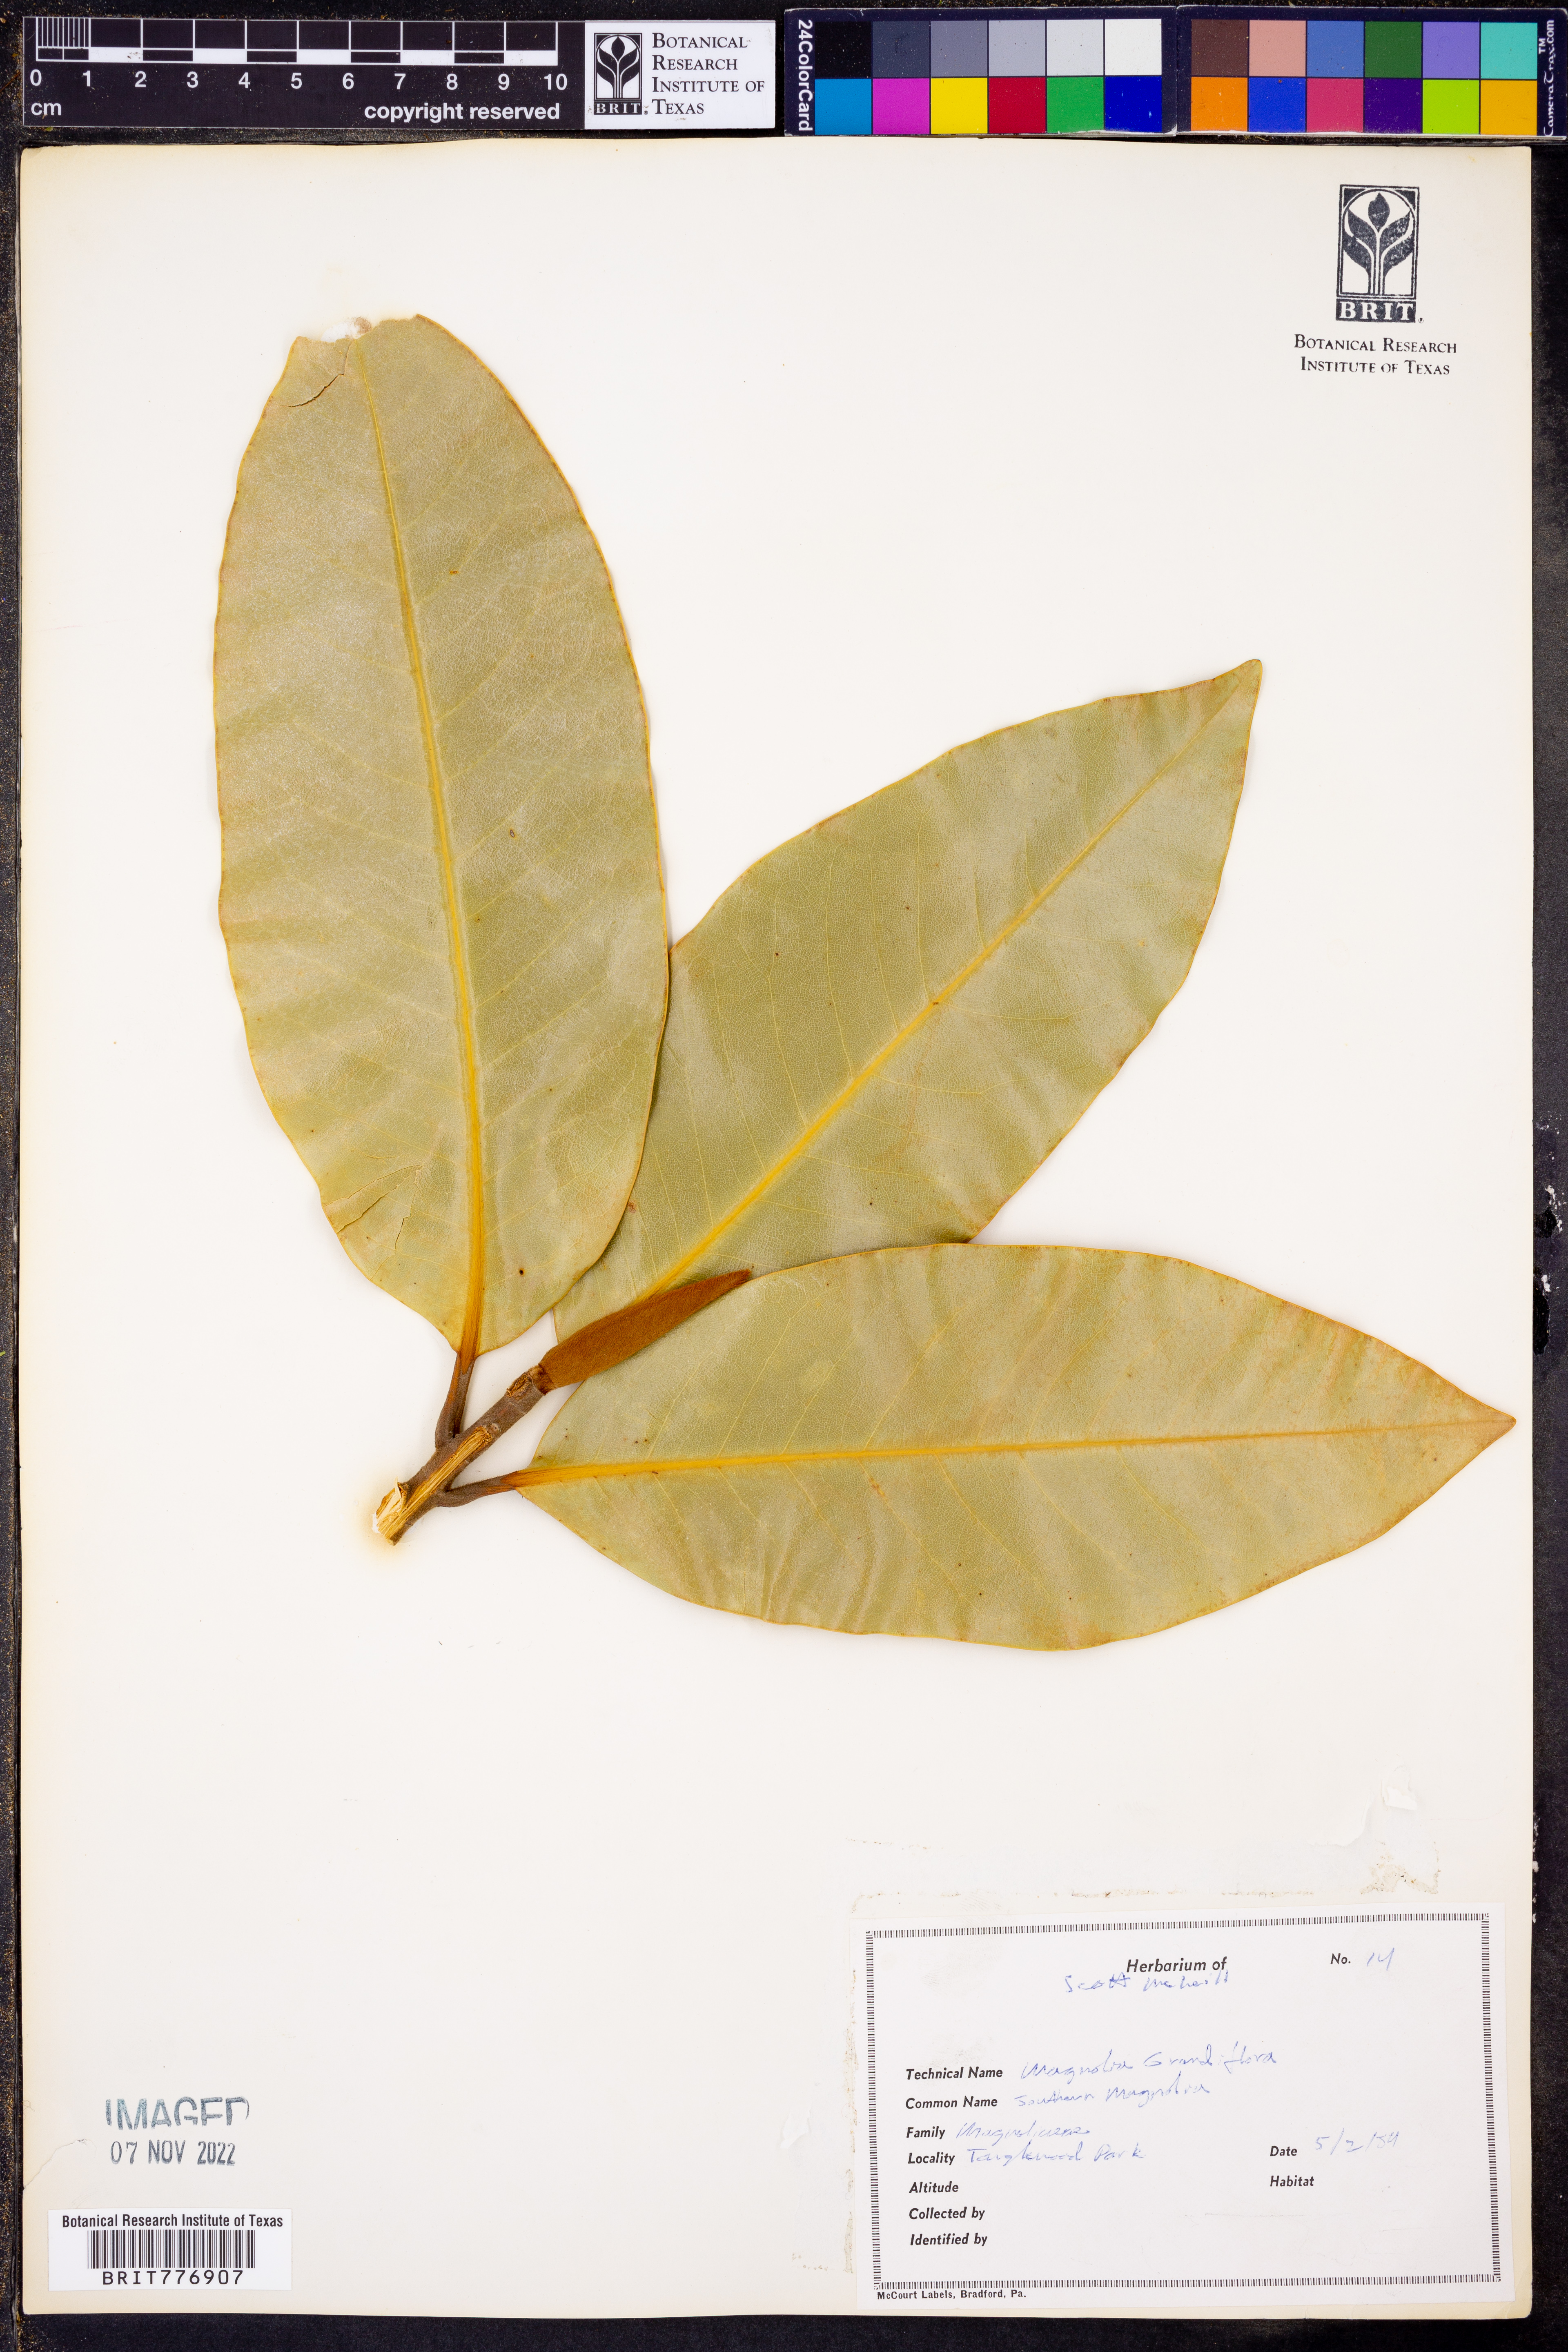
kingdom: Plantae
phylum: Tracheophyta
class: Magnoliopsida
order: Magnoliales
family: Magnoliaceae
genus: Magnolia
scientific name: Magnolia grandiflora
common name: Southern magnolia
